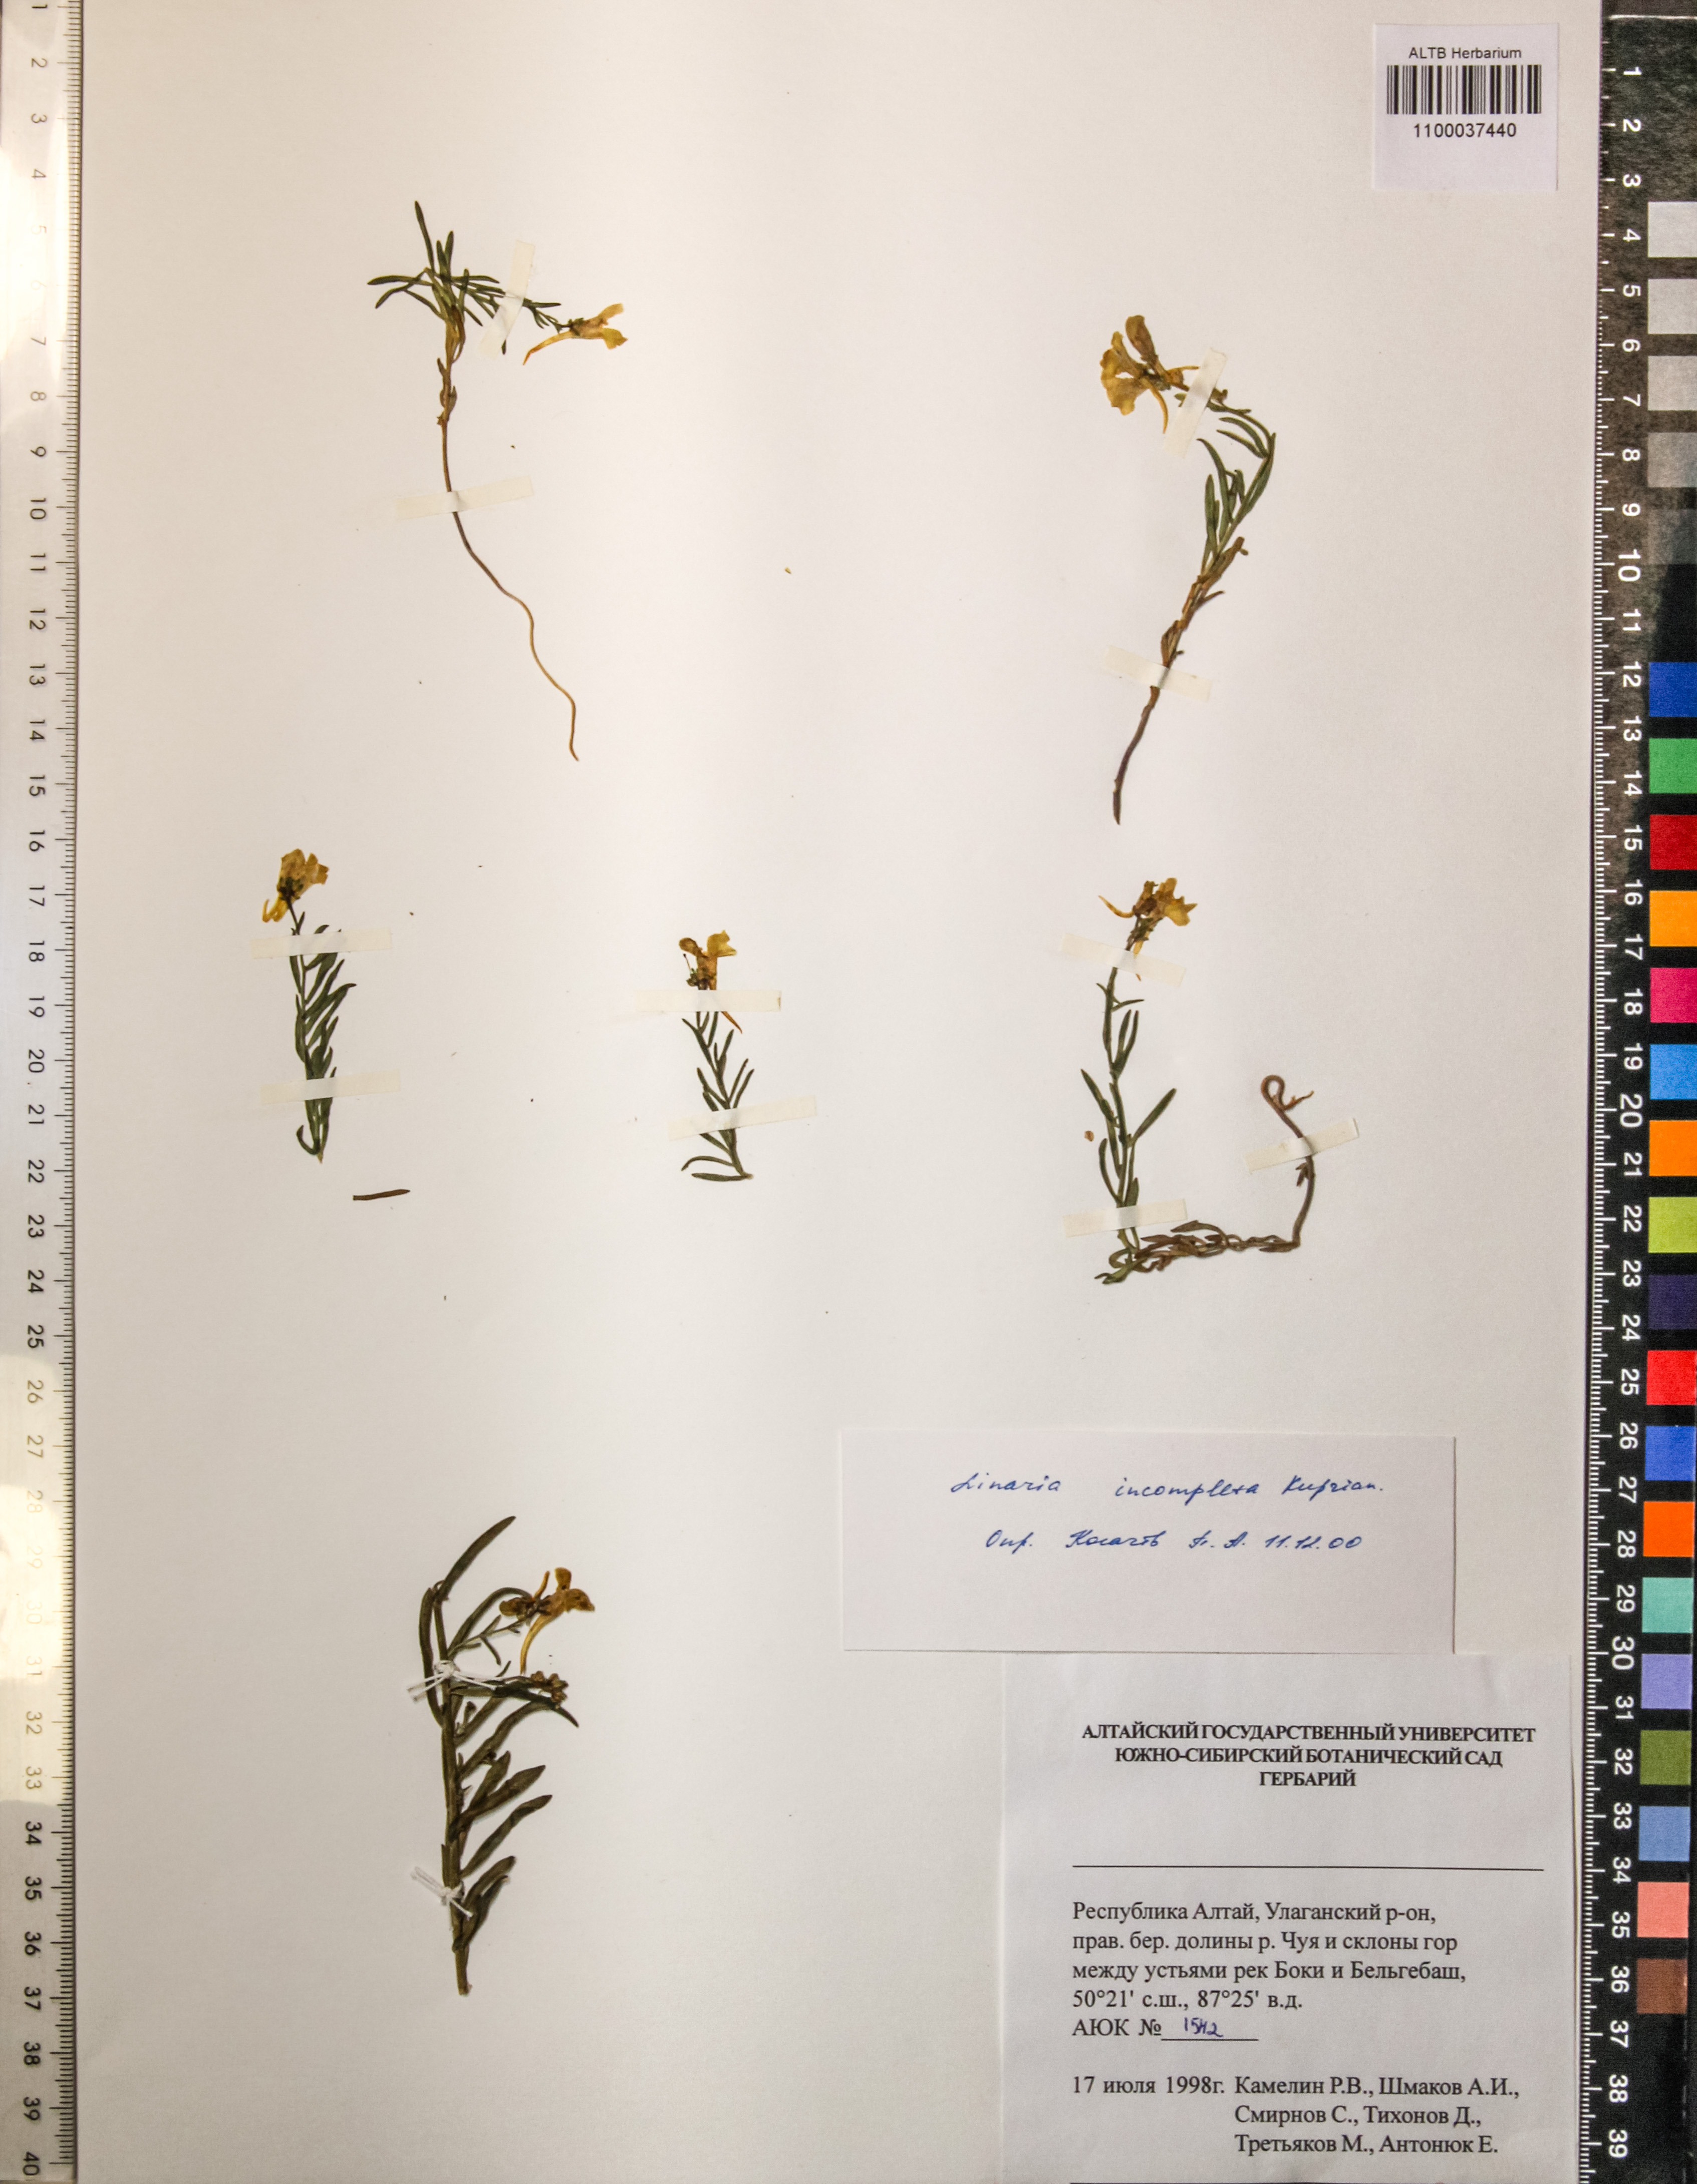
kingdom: Plantae
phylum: Tracheophyta
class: Magnoliopsida
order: Lamiales
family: Orobanchaceae
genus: Odontites
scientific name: Odontites vulgaris
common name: Broomrape
